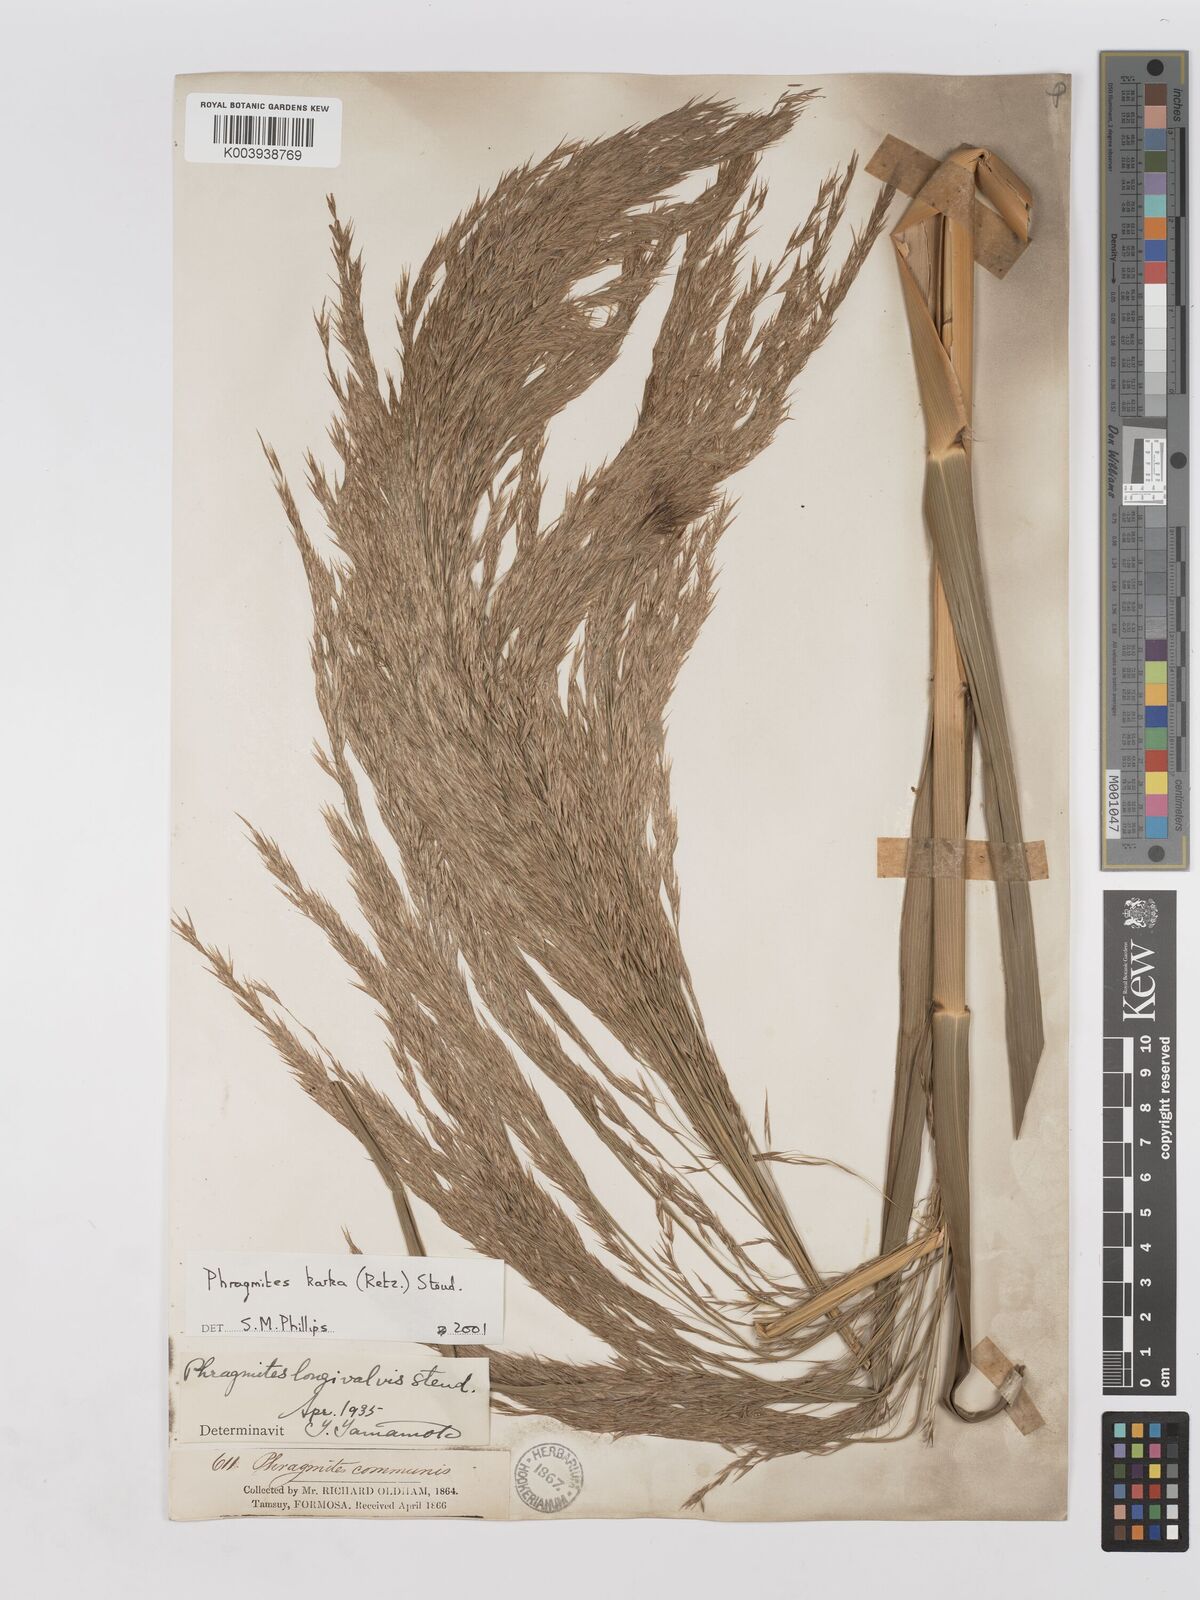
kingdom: Plantae
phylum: Tracheophyta
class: Liliopsida
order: Poales
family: Poaceae
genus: Phragmites
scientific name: Phragmites karka
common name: Tropical reed
